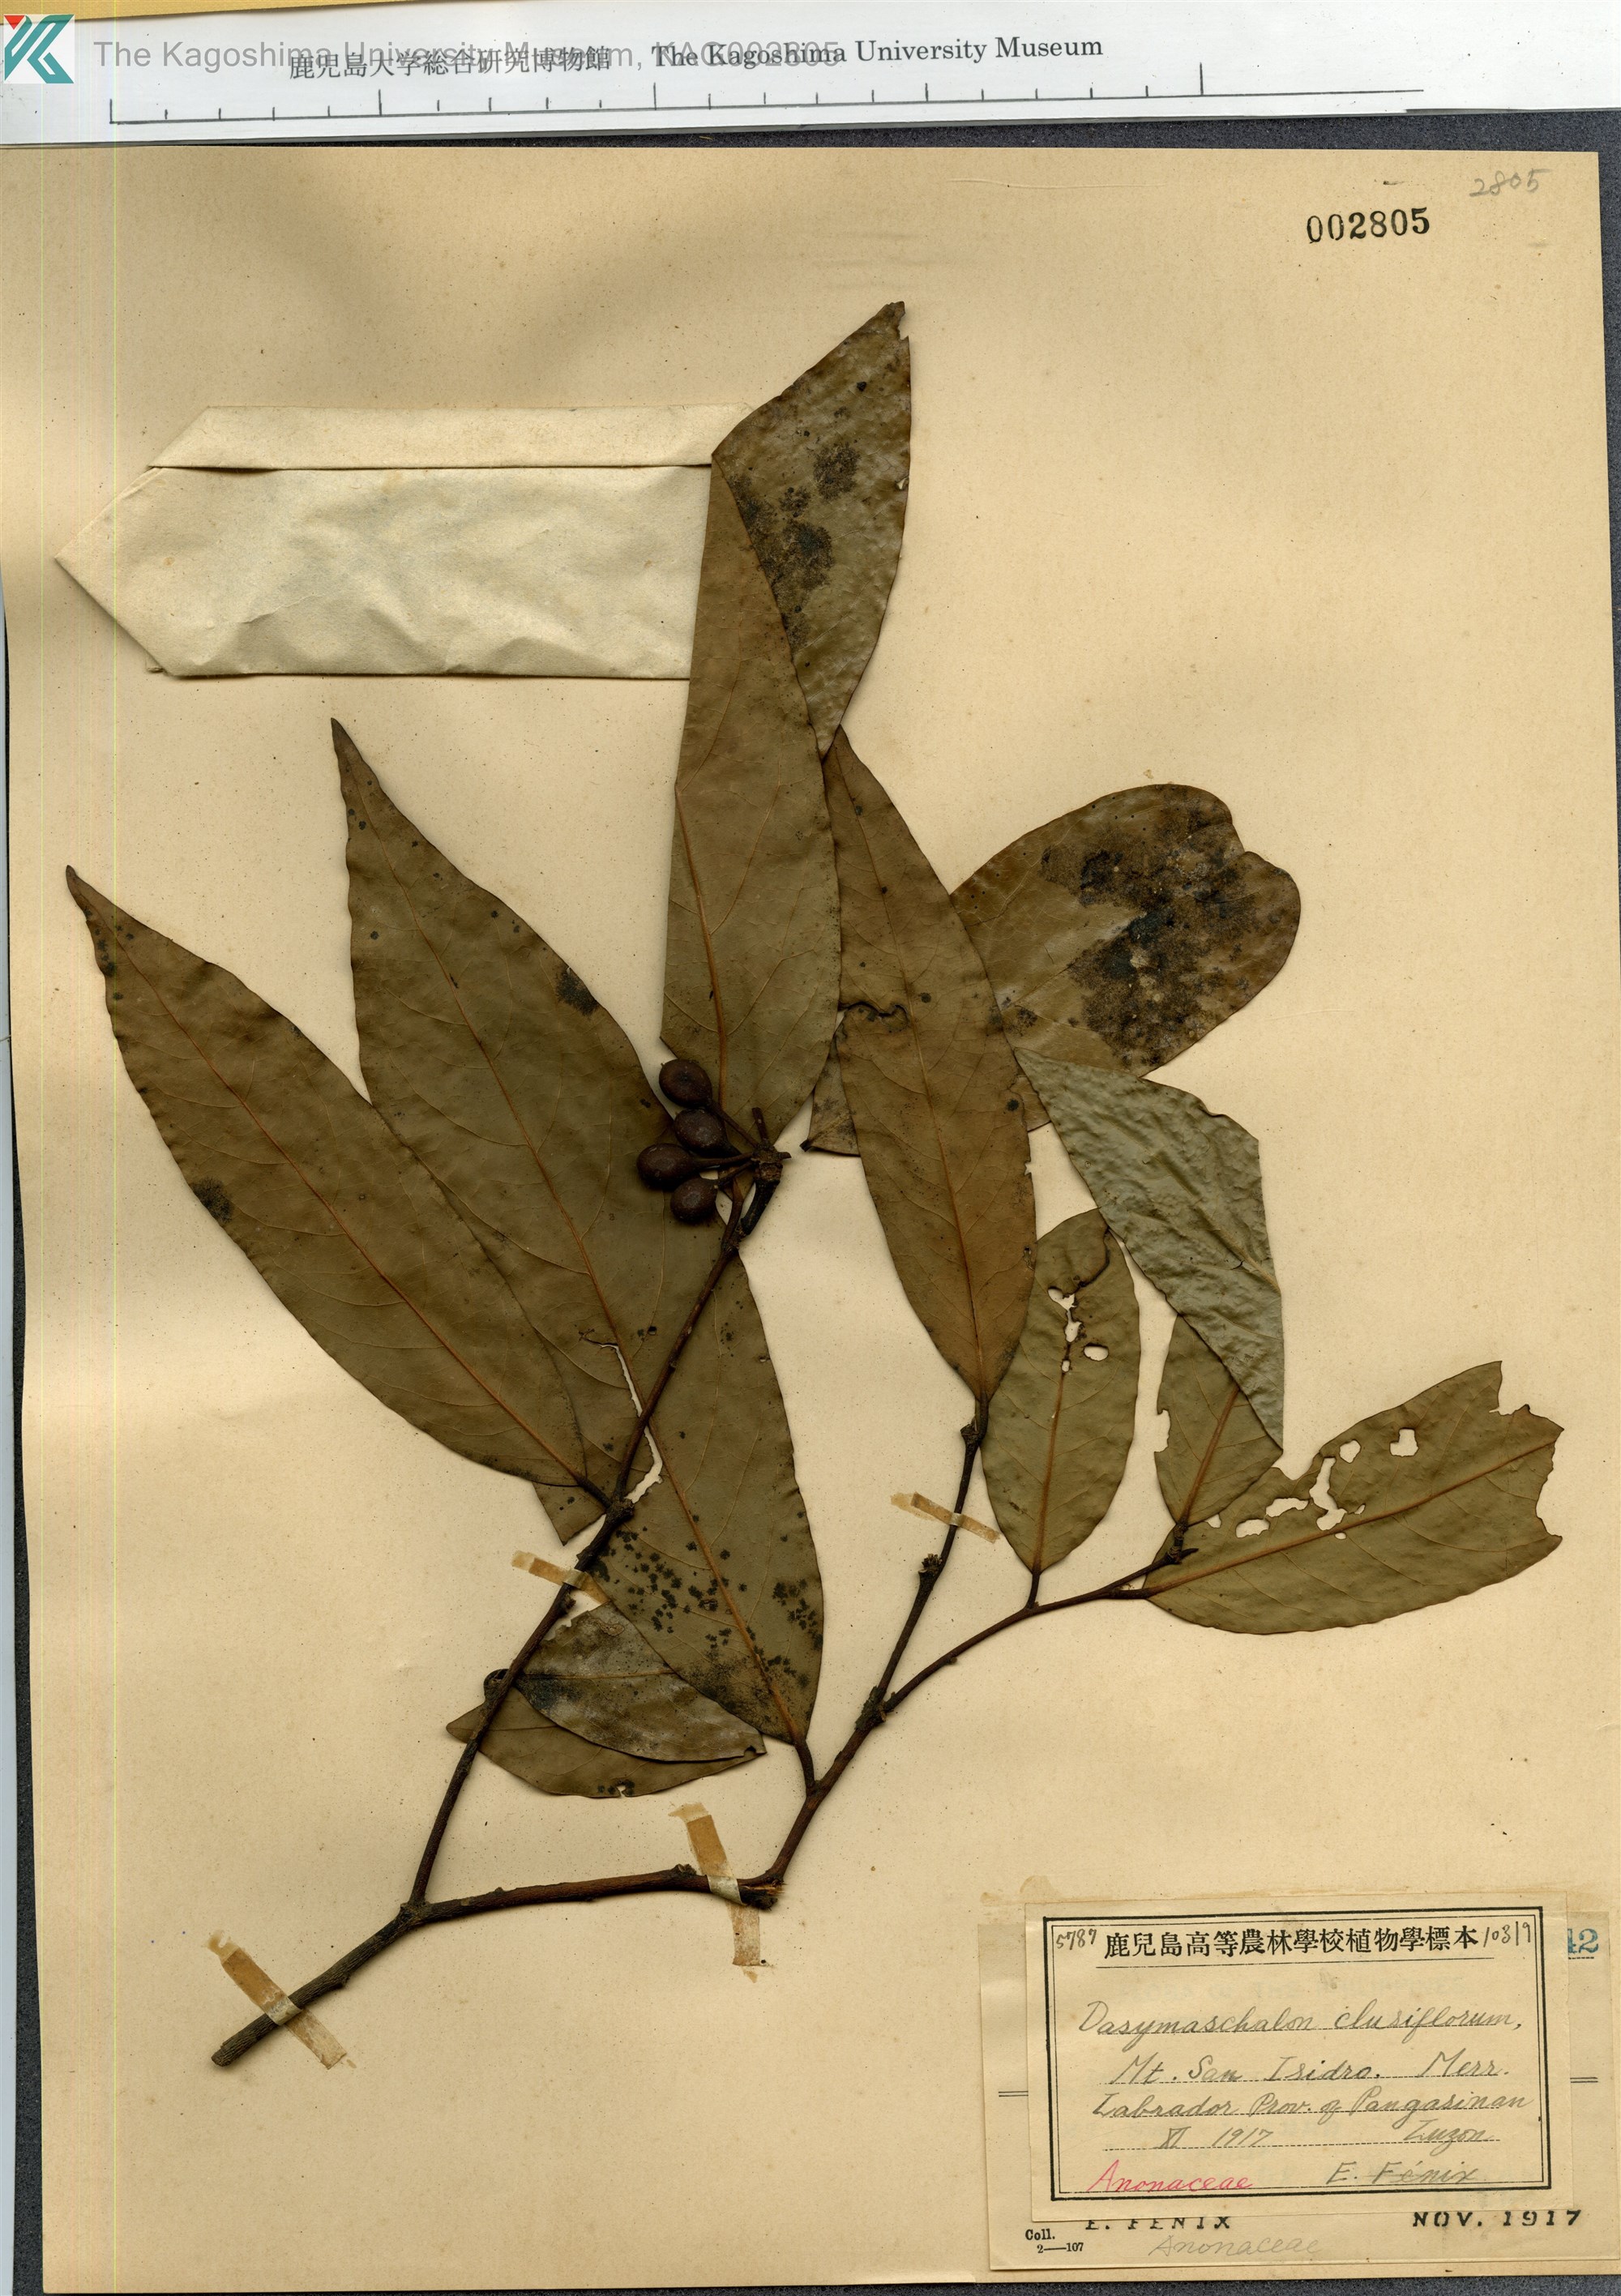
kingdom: Plantae
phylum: Tracheophyta
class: Magnoliopsida
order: Magnoliales
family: Annonaceae
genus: Dasymaschalon
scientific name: Dasymaschalon clusiflorum
